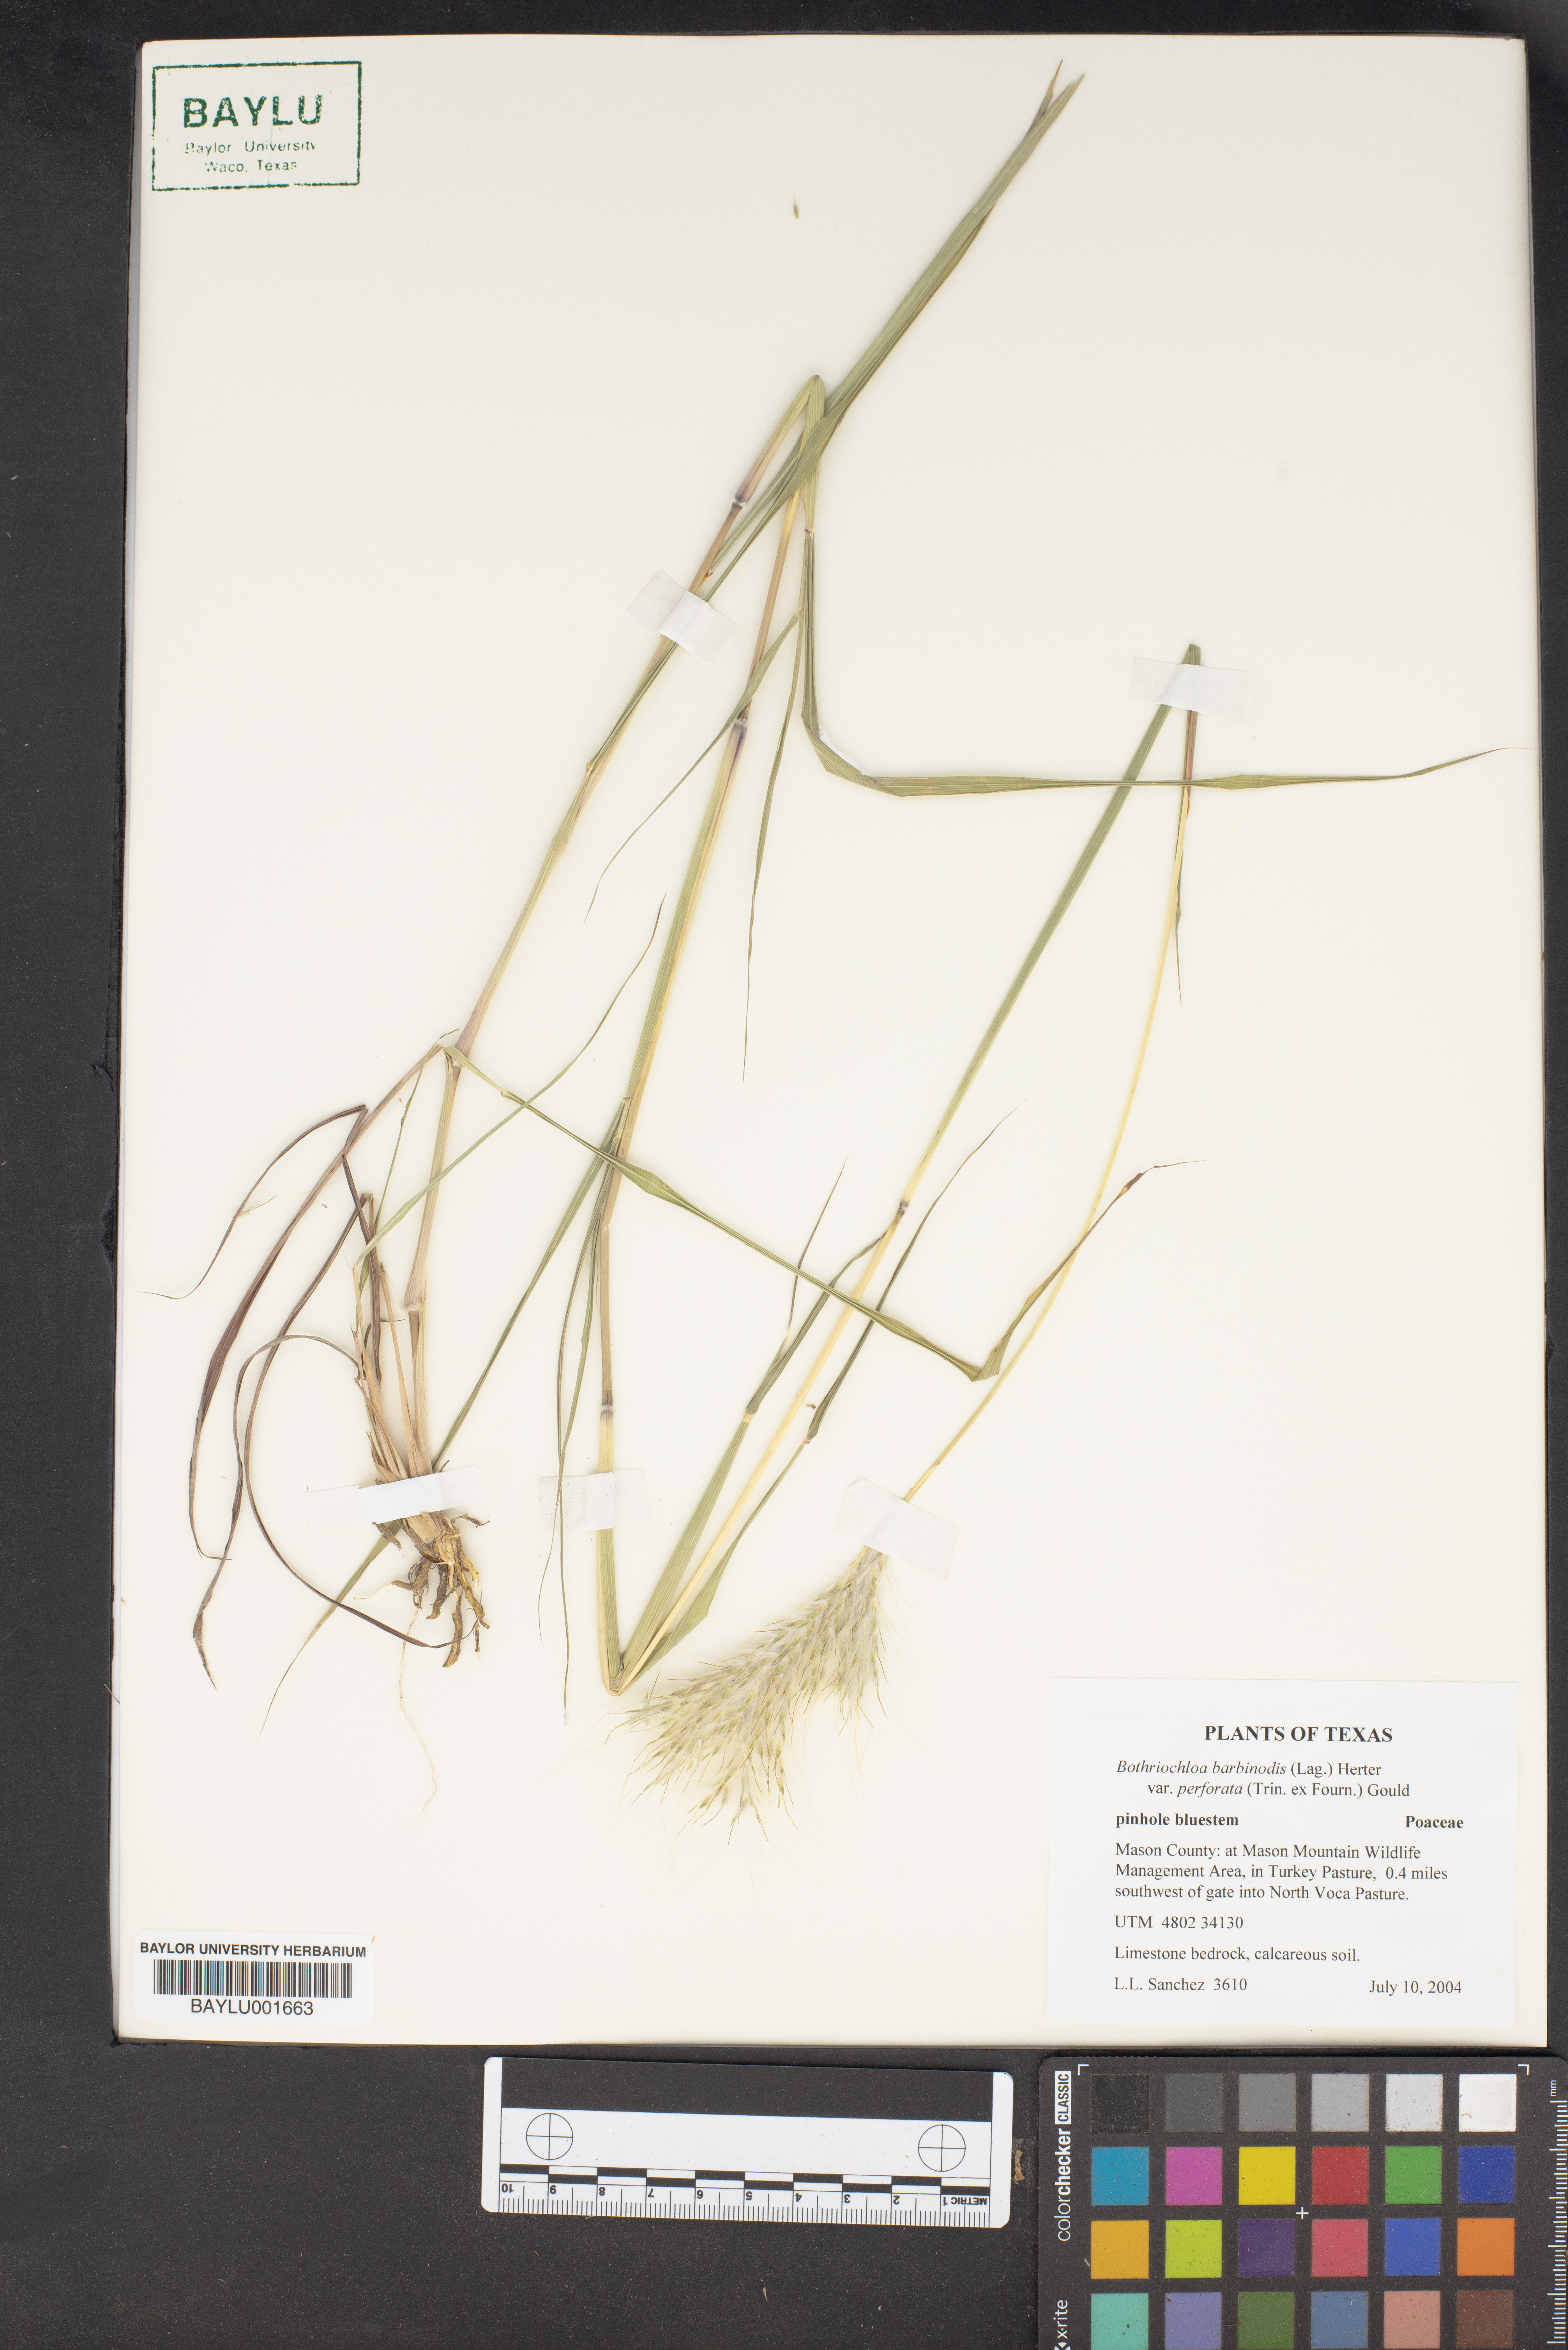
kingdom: Plantae
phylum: Tracheophyta
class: Liliopsida
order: Poales
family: Poaceae
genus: Bothriochloa
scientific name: Bothriochloa barbinodis
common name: Cane bluestem
